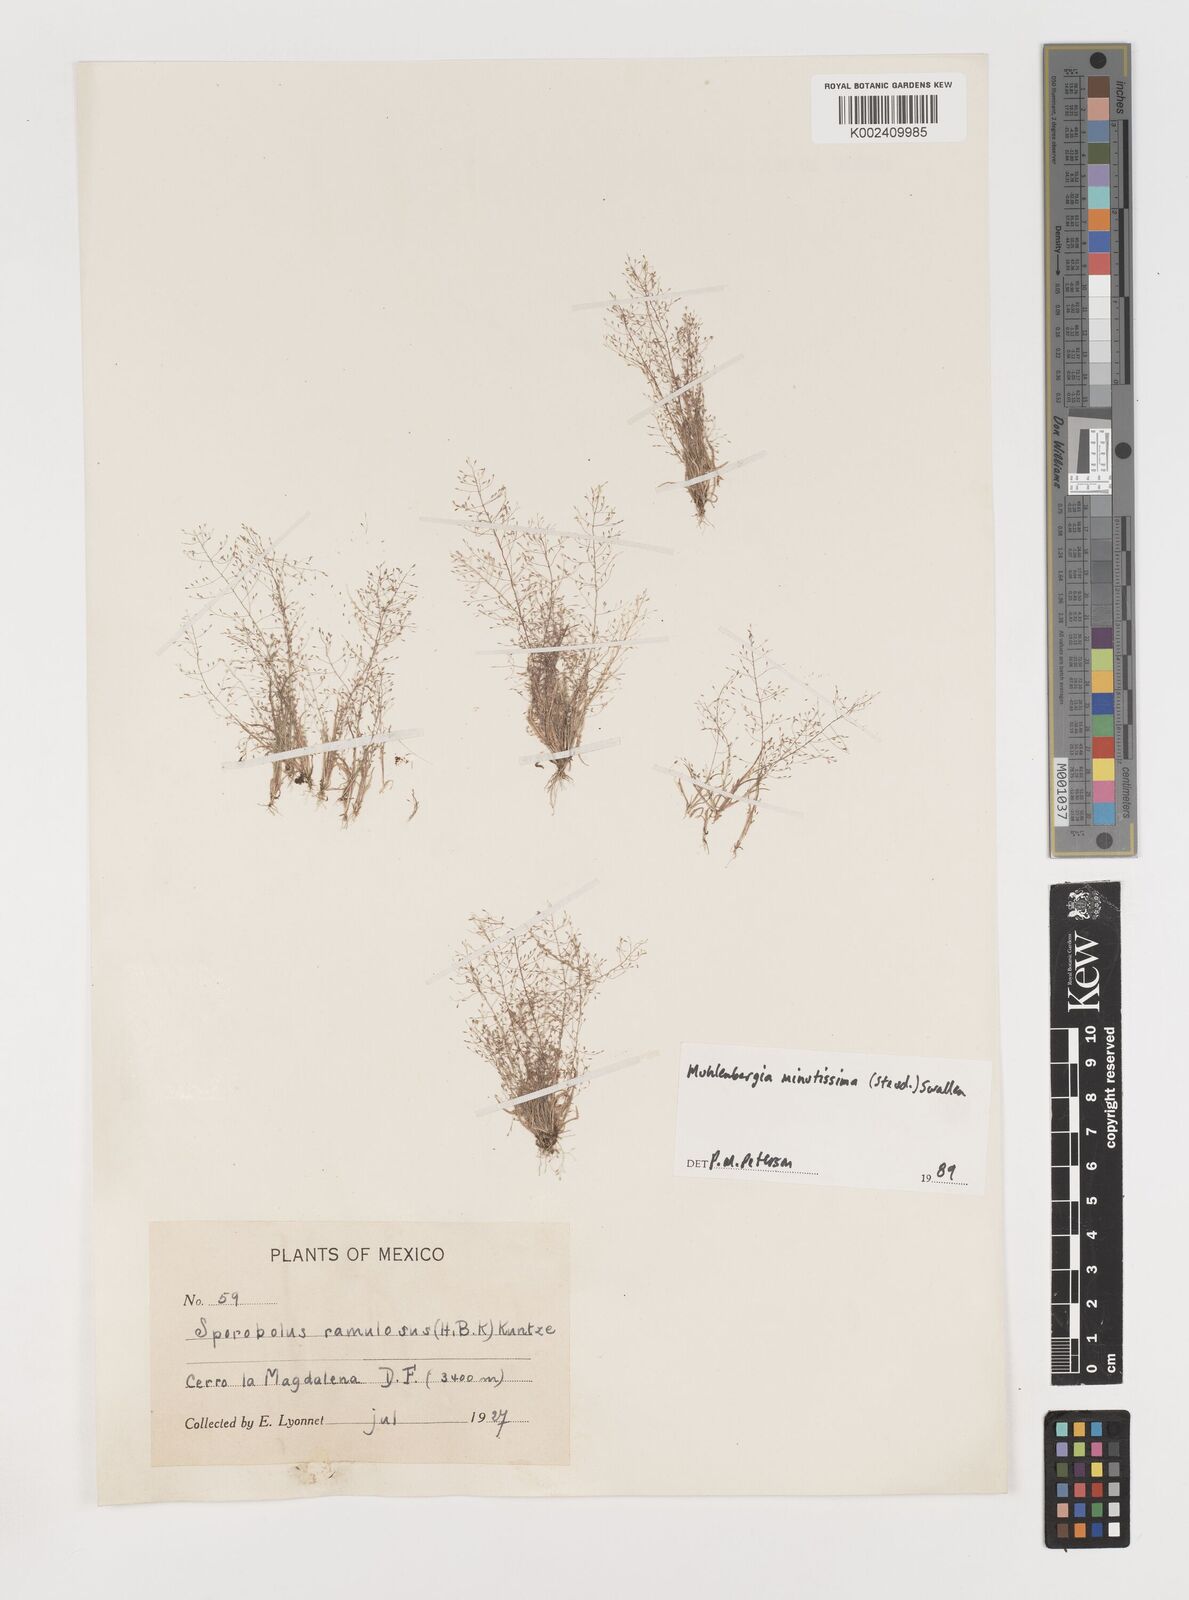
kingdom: Plantae
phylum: Tracheophyta
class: Liliopsida
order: Poales
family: Poaceae
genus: Muhlenbergia
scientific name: Muhlenbergia minutissima
